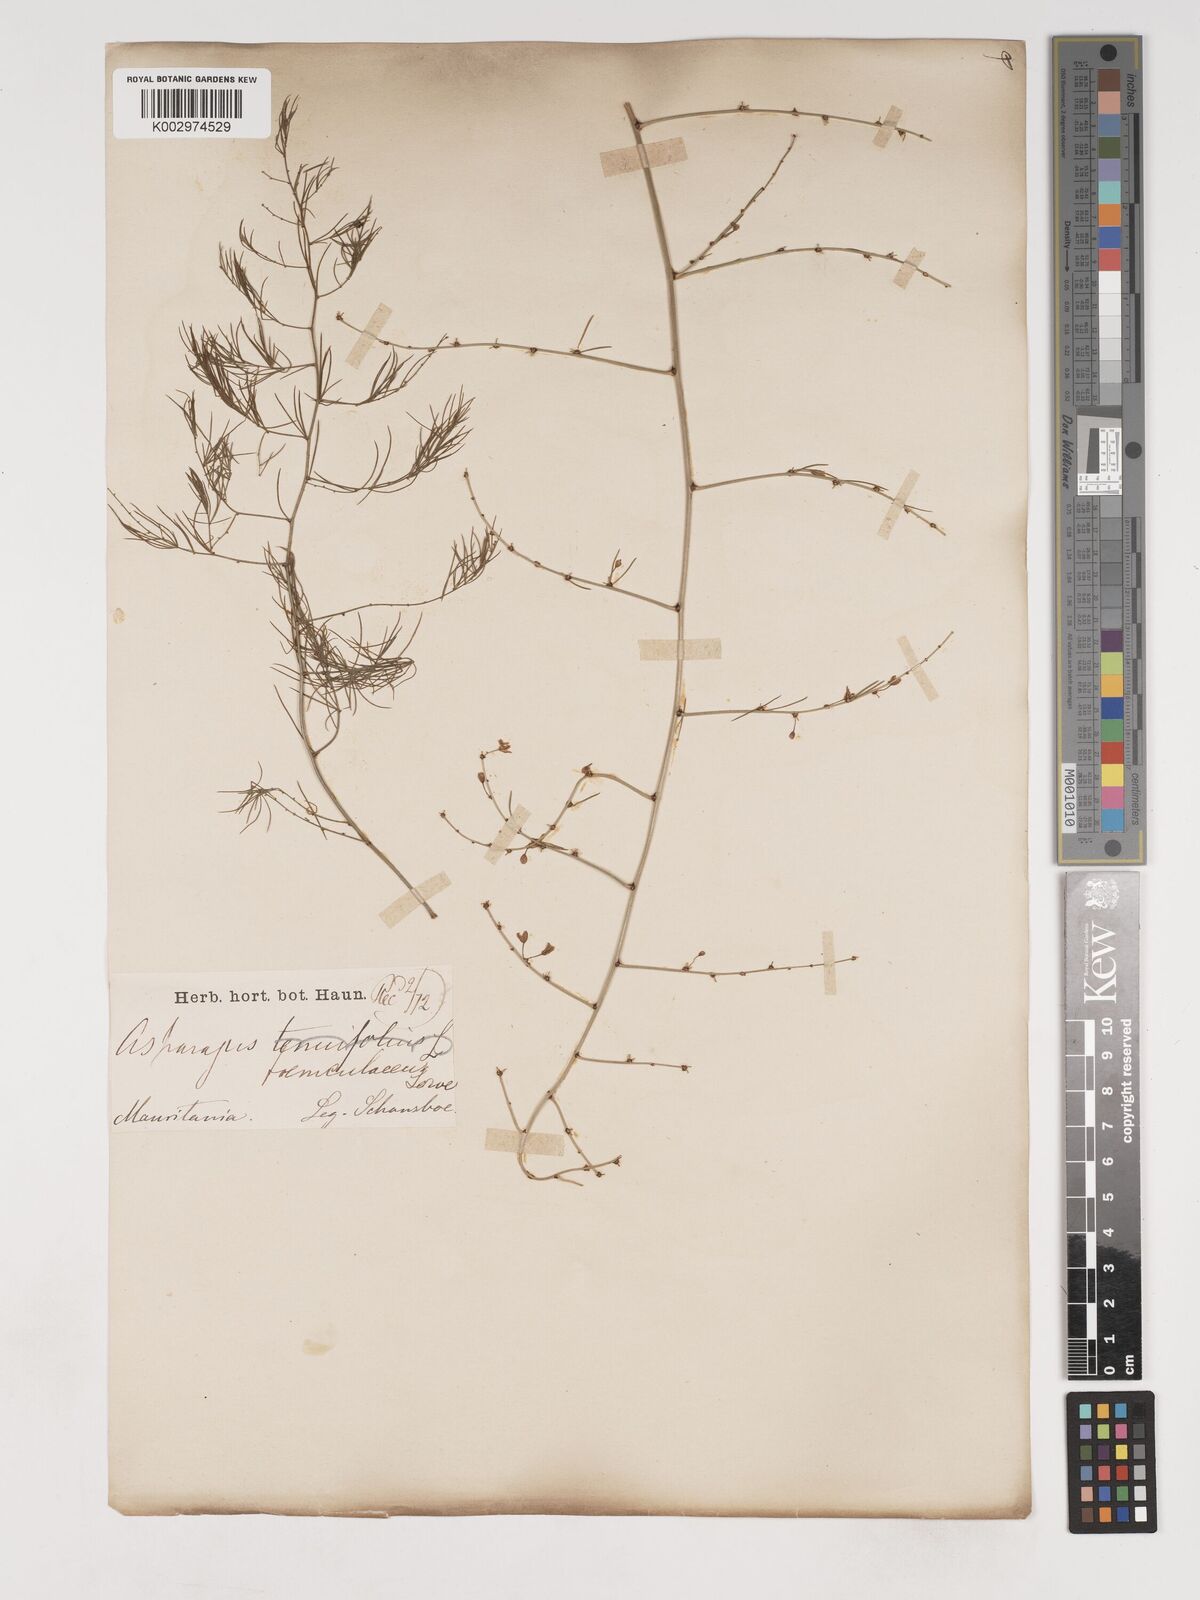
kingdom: Plantae
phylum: Tracheophyta
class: Liliopsida
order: Asparagales
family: Asparagaceae
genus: Asparagus
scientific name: Asparagus altissimus
